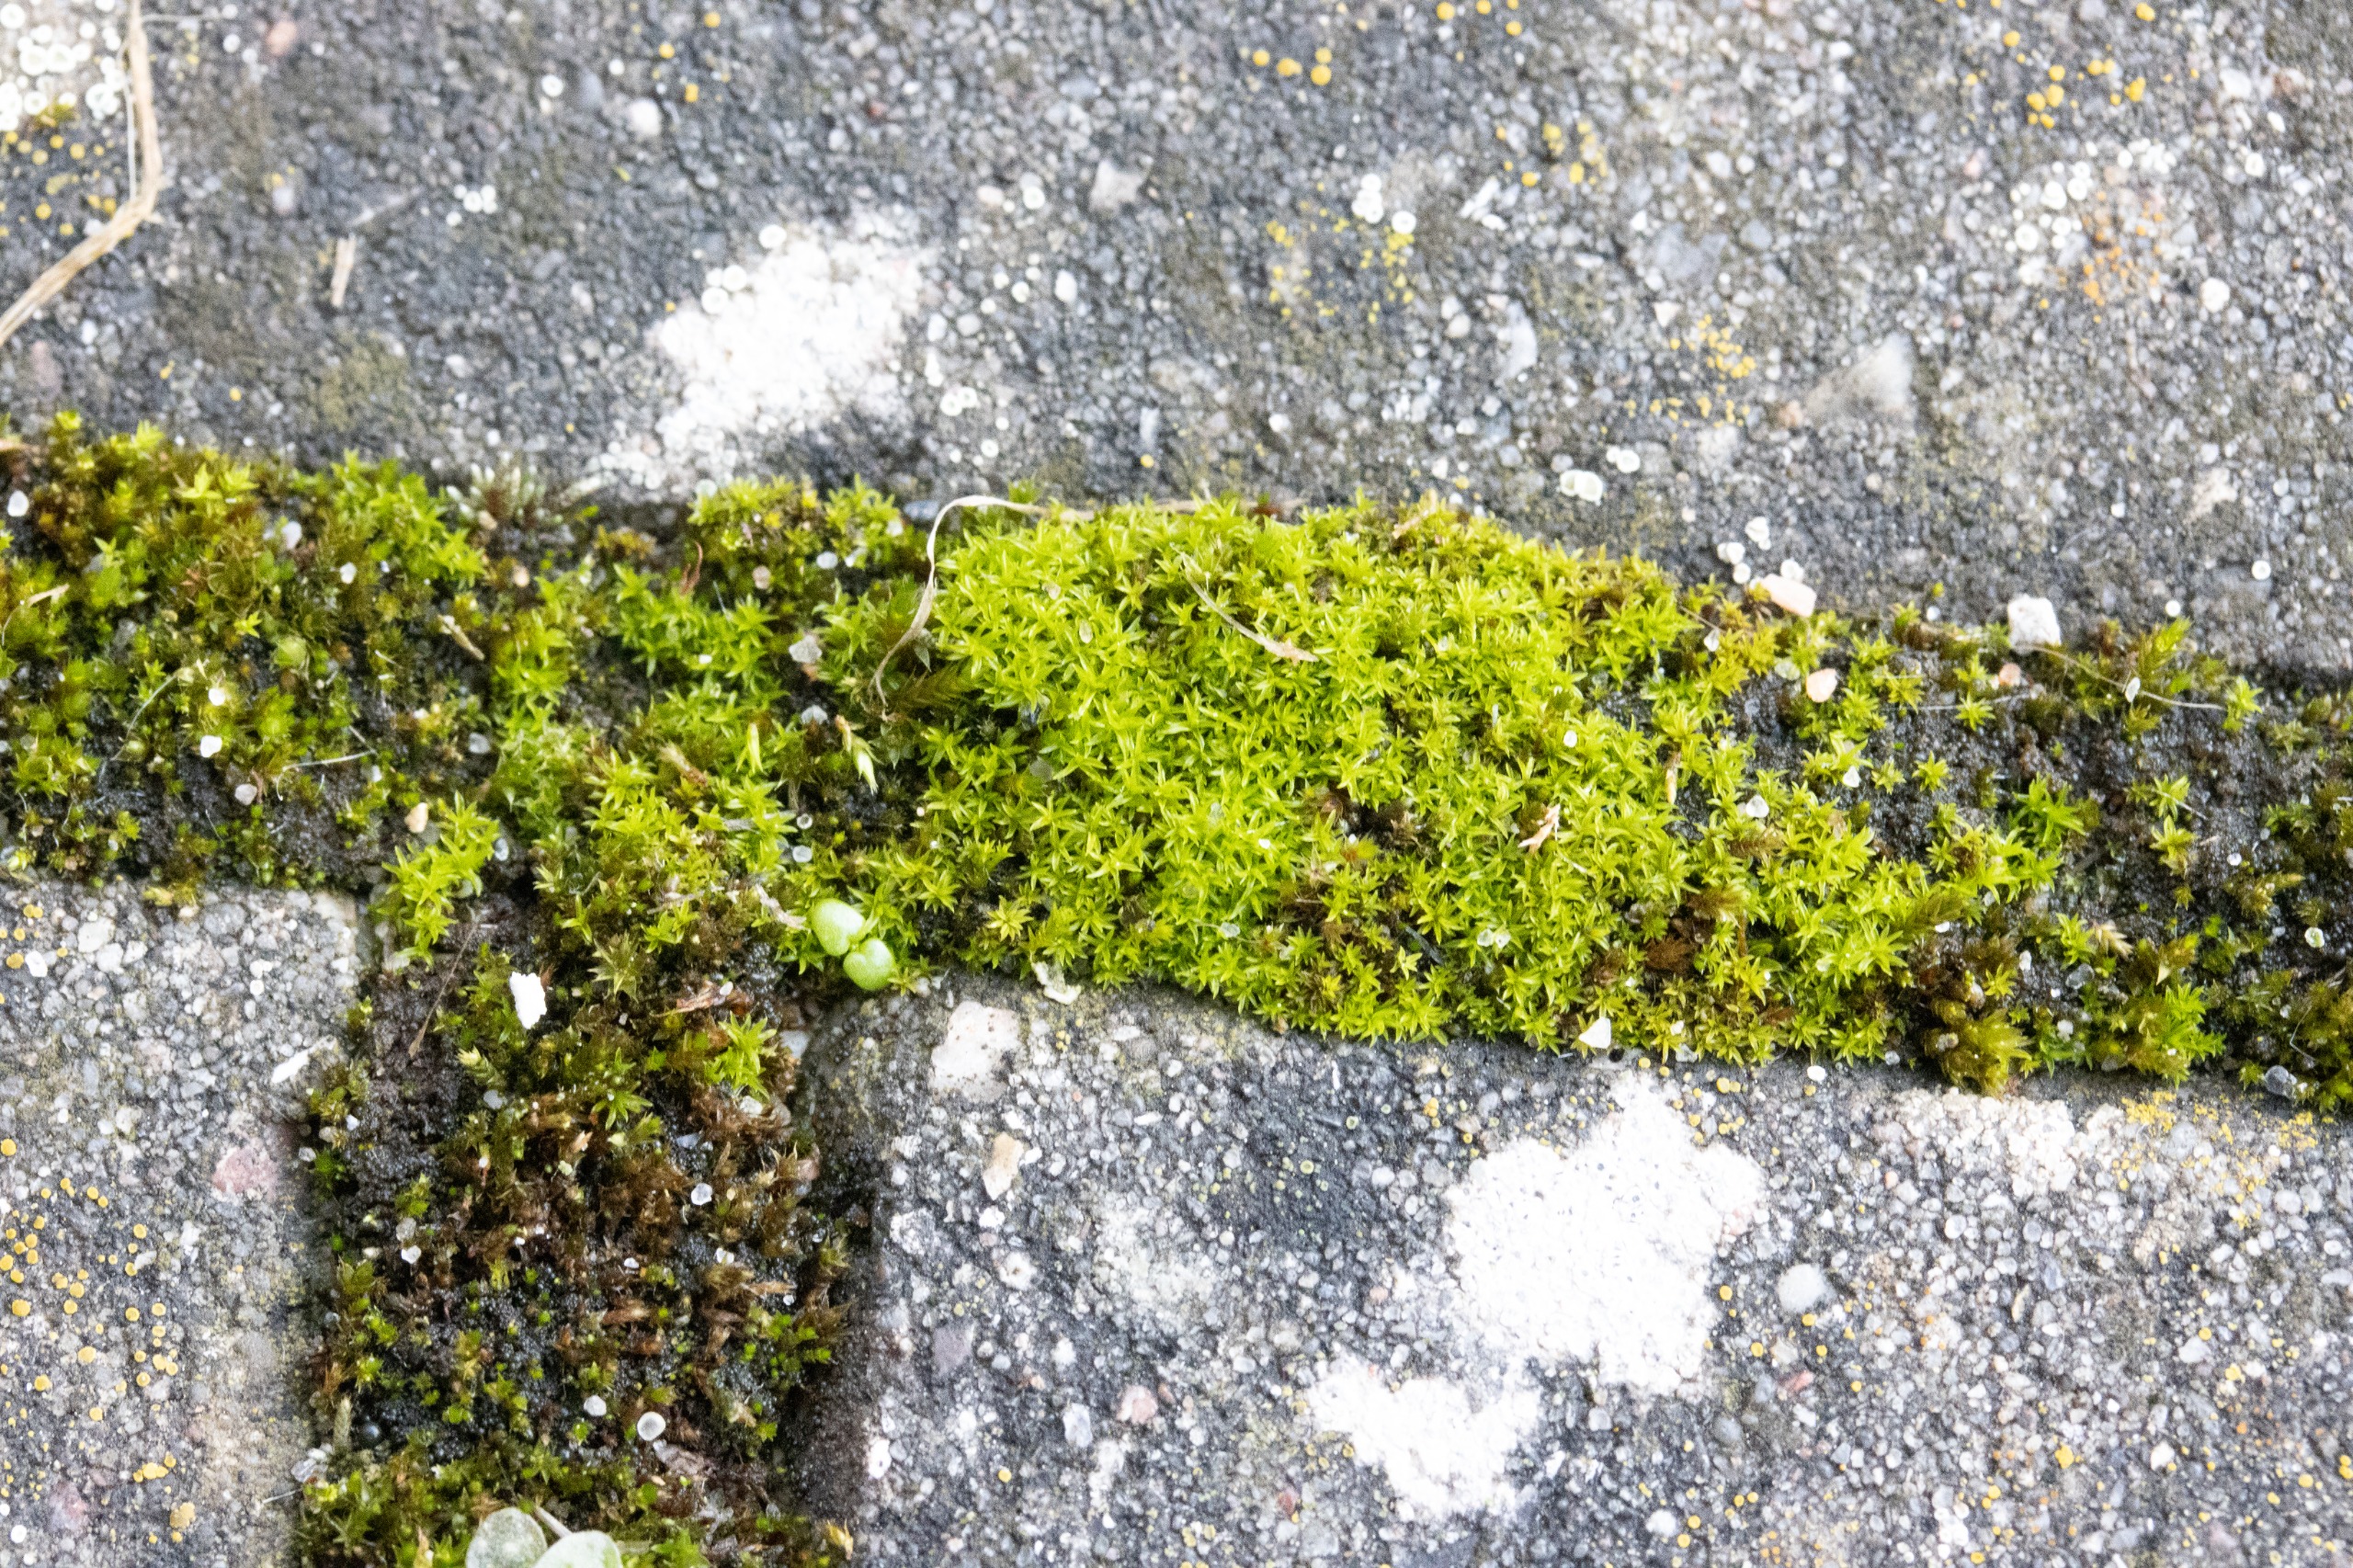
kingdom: Plantae
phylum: Bryophyta
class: Bryopsida
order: Pottiales
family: Pottiaceae
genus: Barbula
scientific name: Barbula
